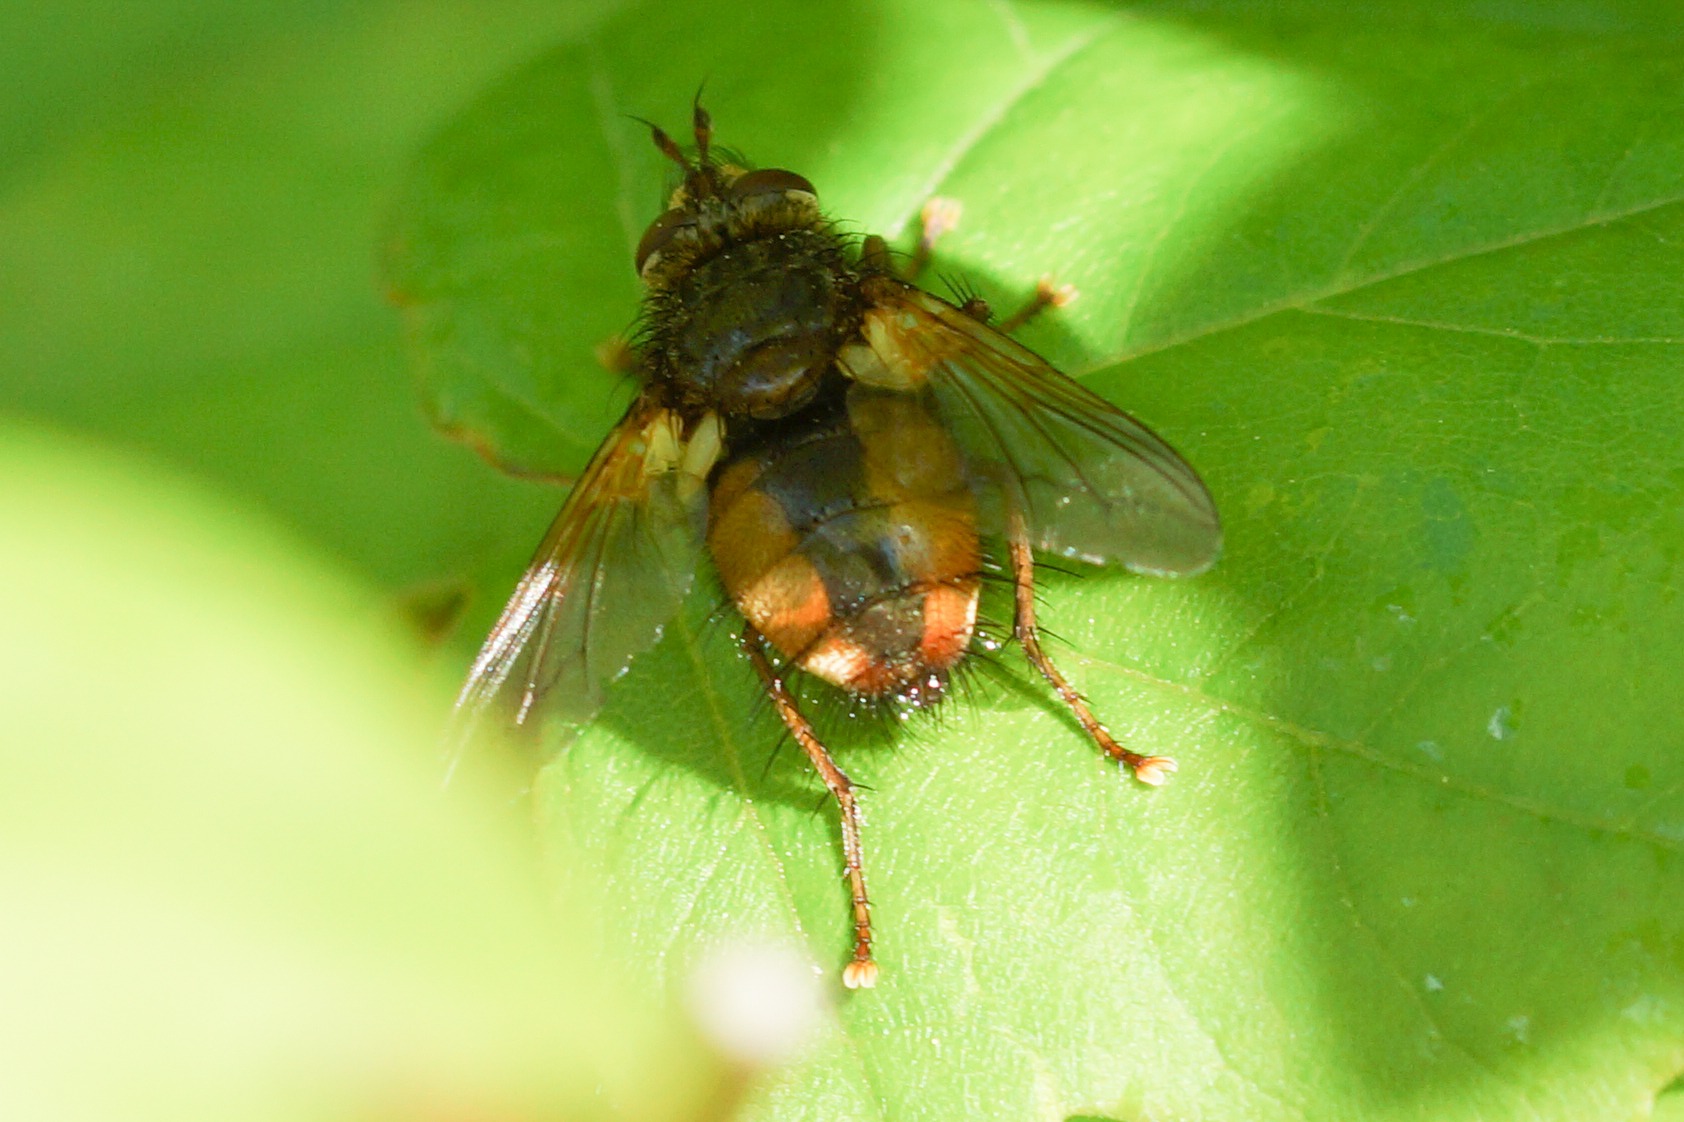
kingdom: Animalia
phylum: Arthropoda
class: Insecta
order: Diptera
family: Tachinidae
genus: Tachina
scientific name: Tachina fera
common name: Mellemfluen oskar
